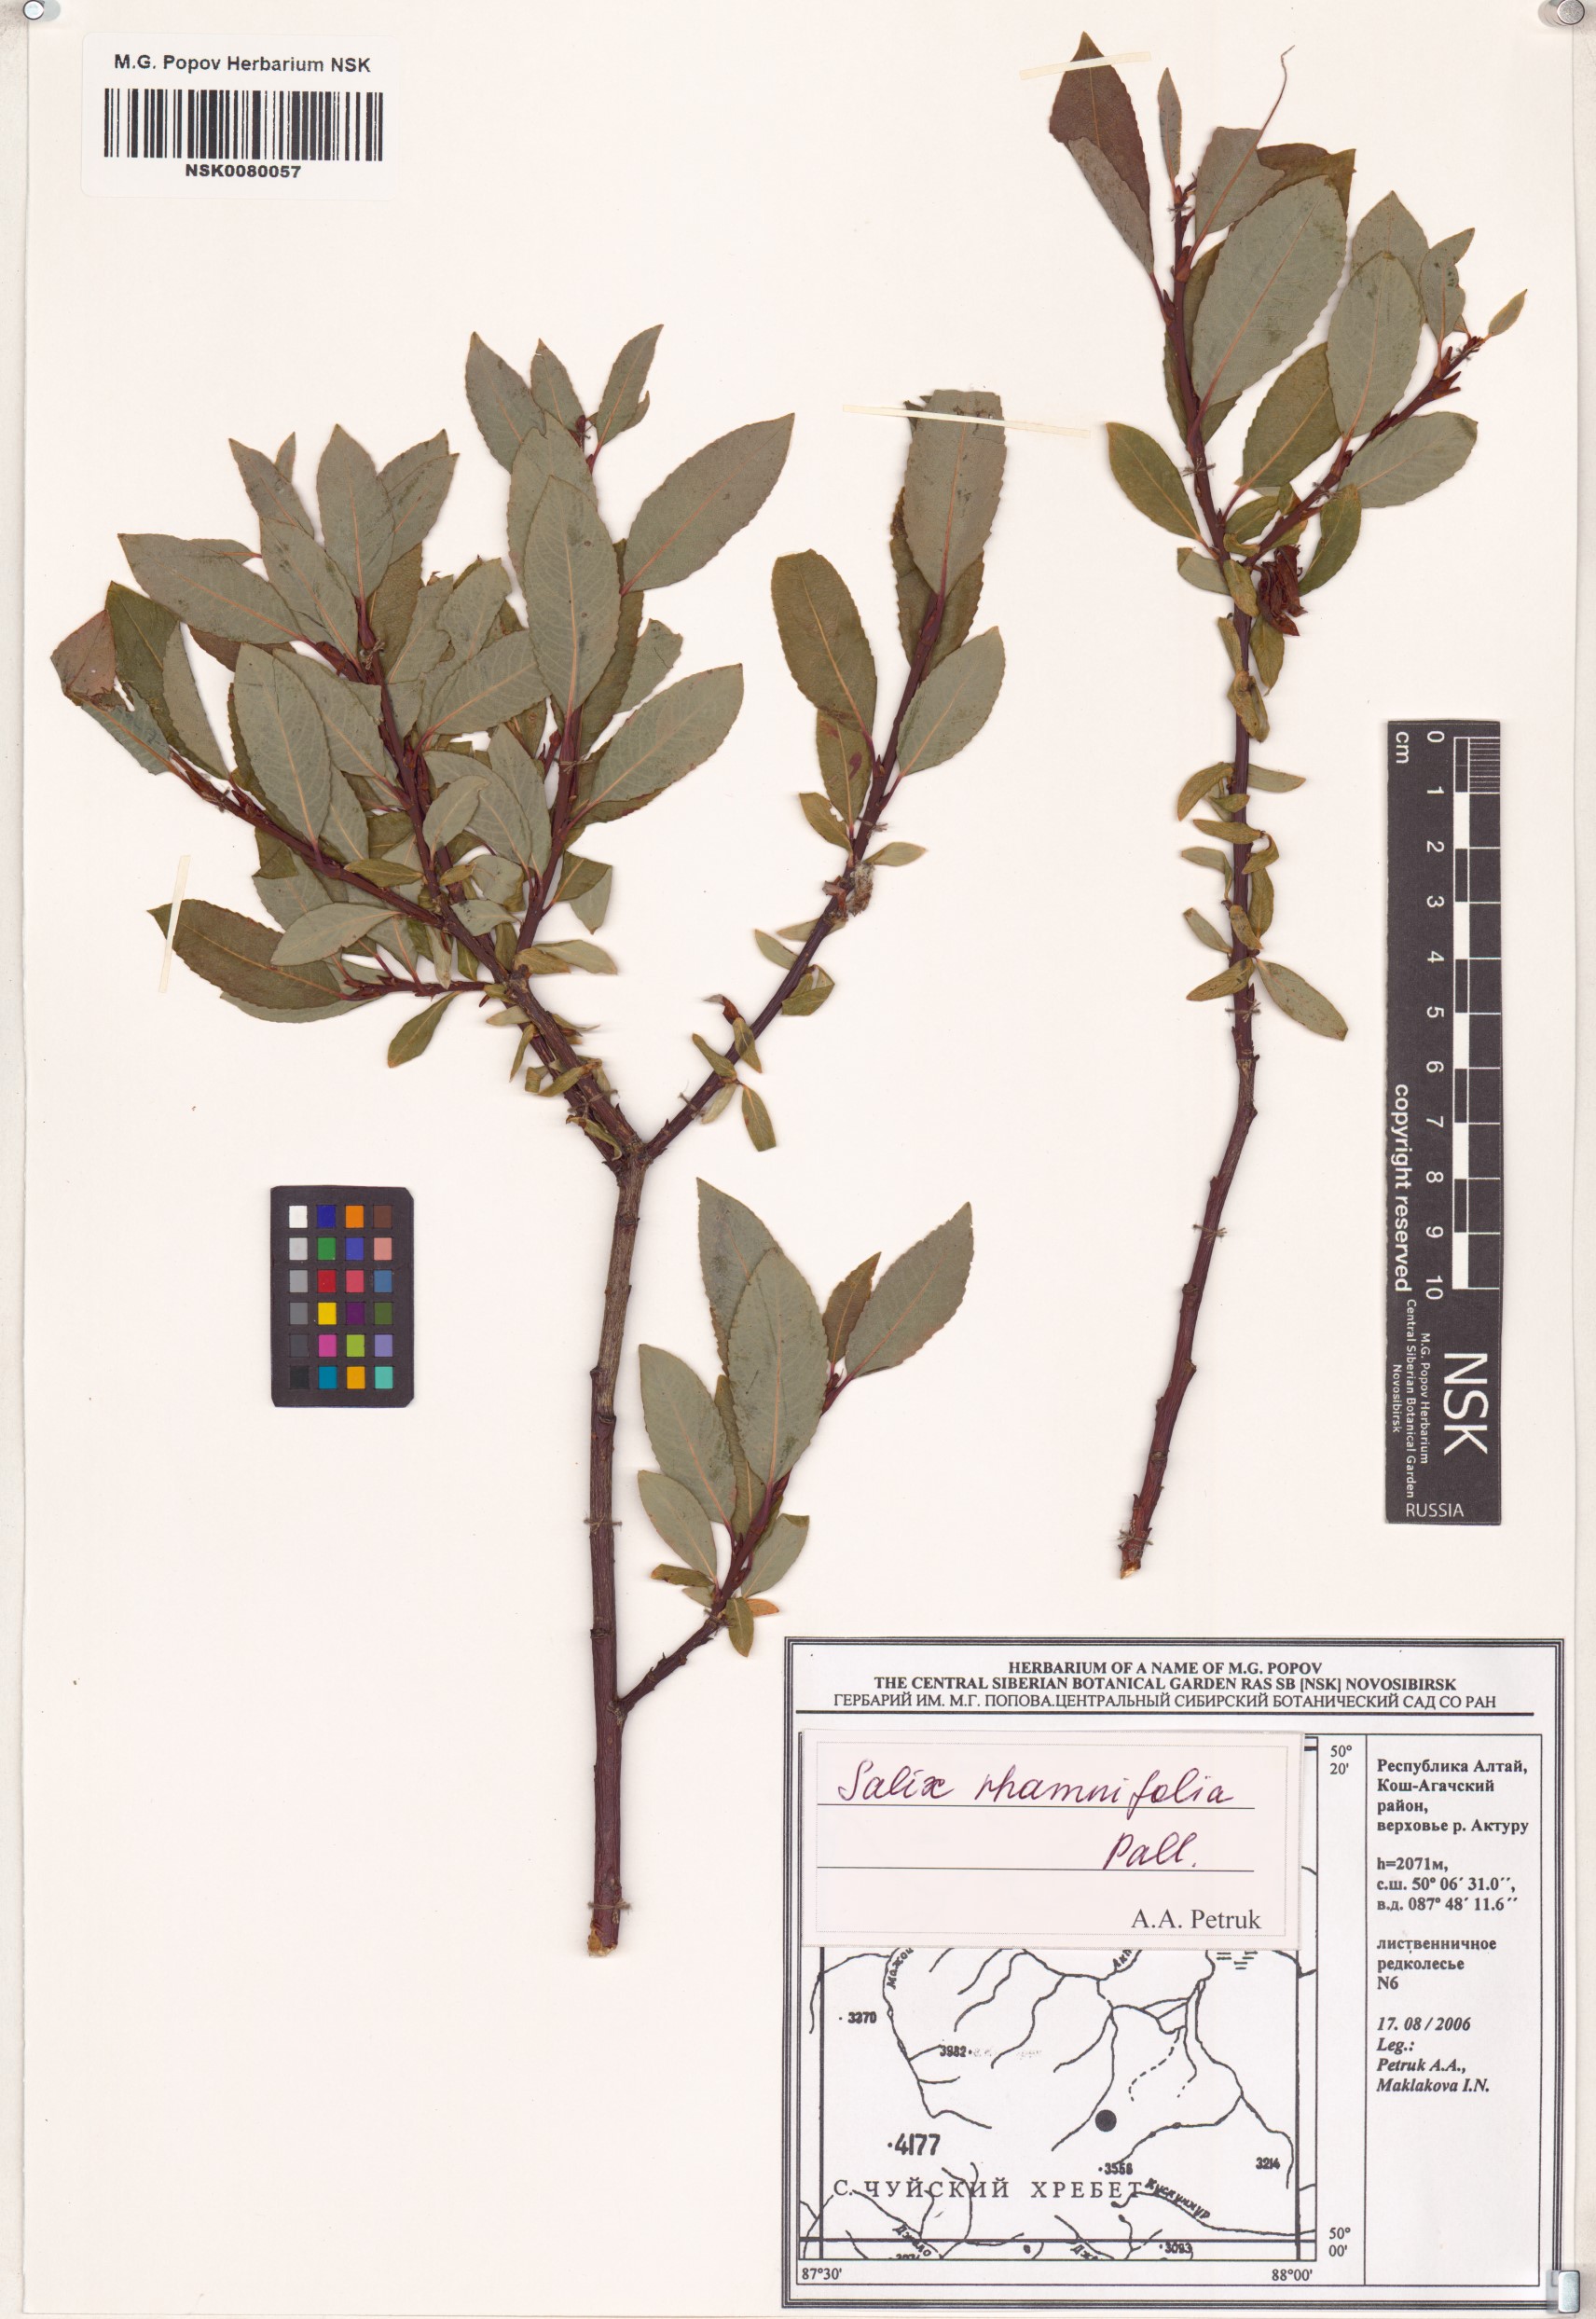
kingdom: Plantae
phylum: Tracheophyta
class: Magnoliopsida
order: Malpighiales
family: Salicaceae
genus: Salix
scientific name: Salix rhamnifolia
